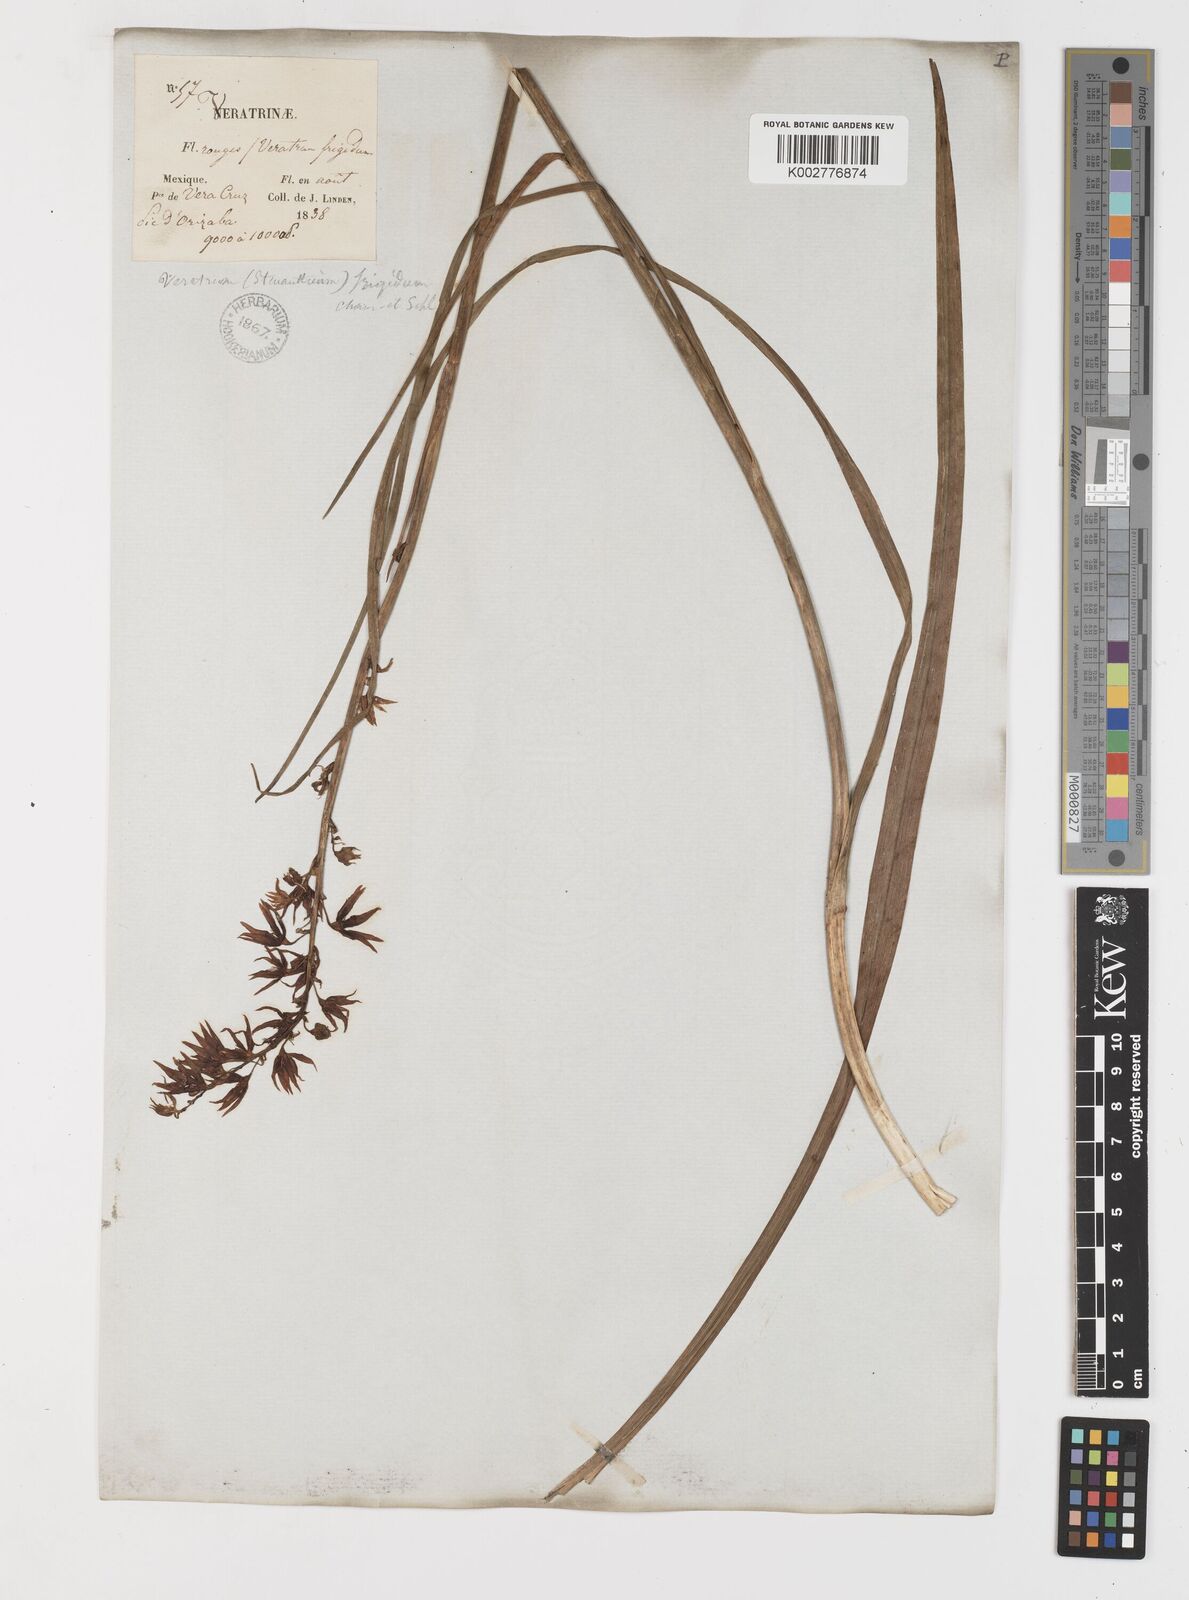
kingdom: Plantae
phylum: Tracheophyta
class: Liliopsida
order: Liliales
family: Melanthiaceae
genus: Anticlea
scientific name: Anticlea frigida
